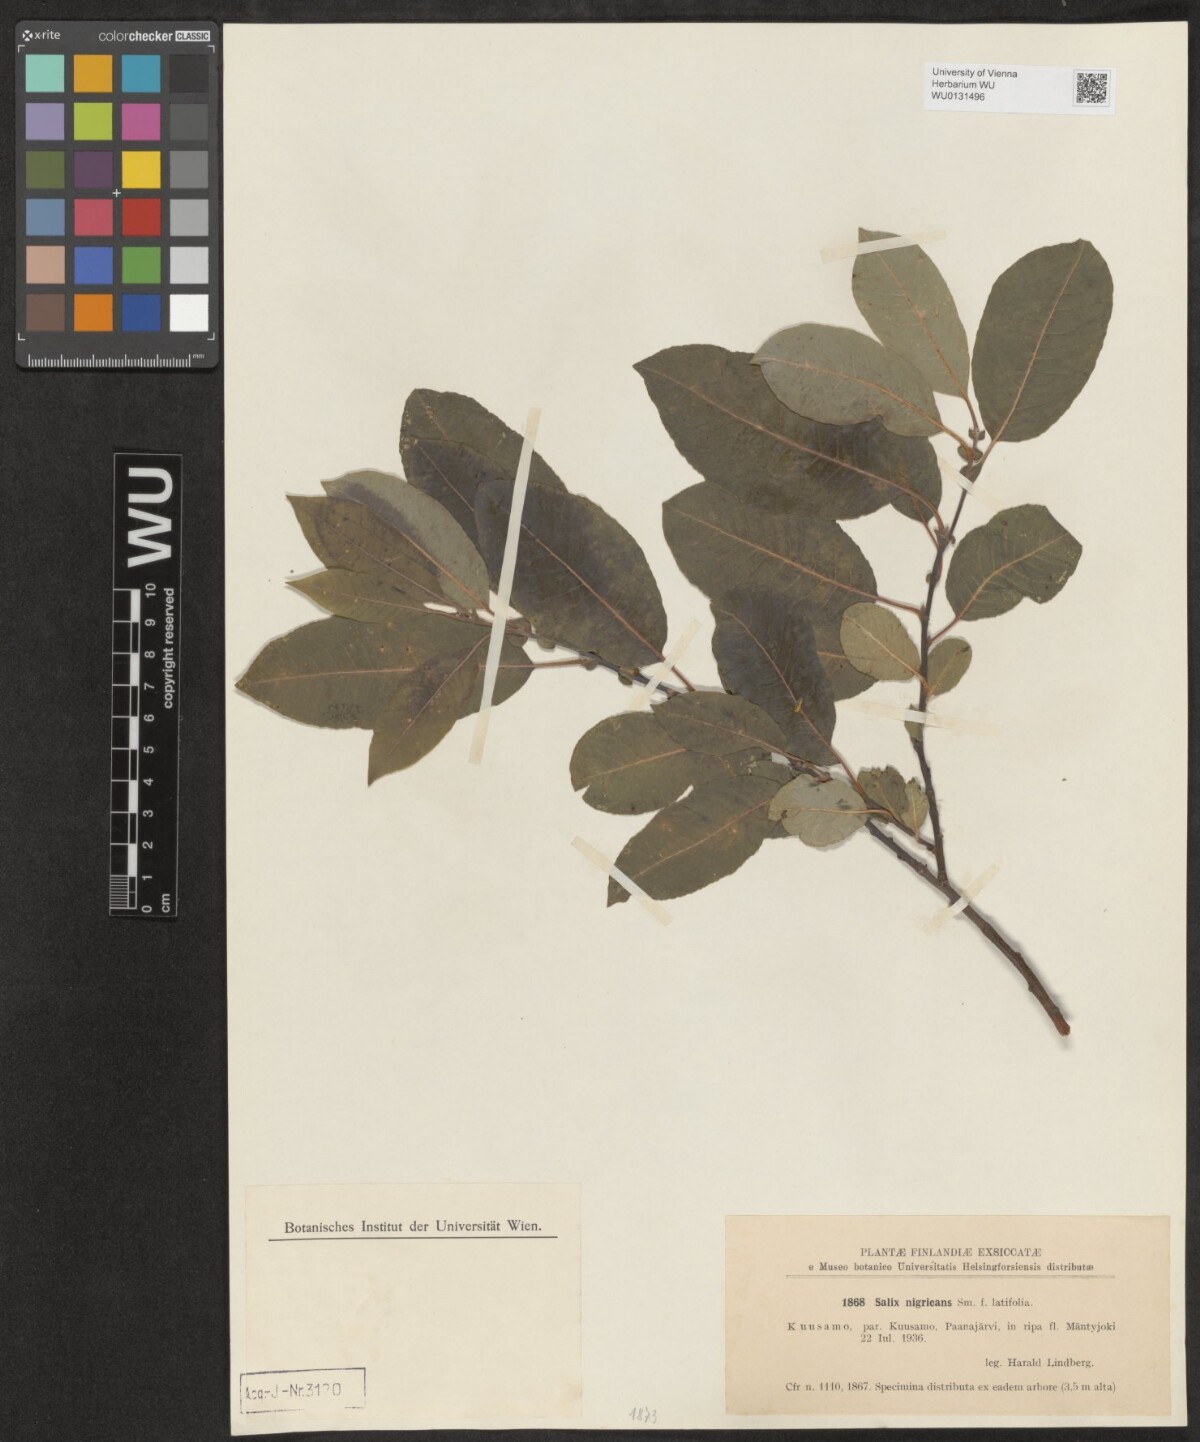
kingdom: Plantae
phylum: Tracheophyta
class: Magnoliopsida
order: Malpighiales
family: Salicaceae
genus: Salix
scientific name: Salix myrsinifolia
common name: Dark-leaved willow
